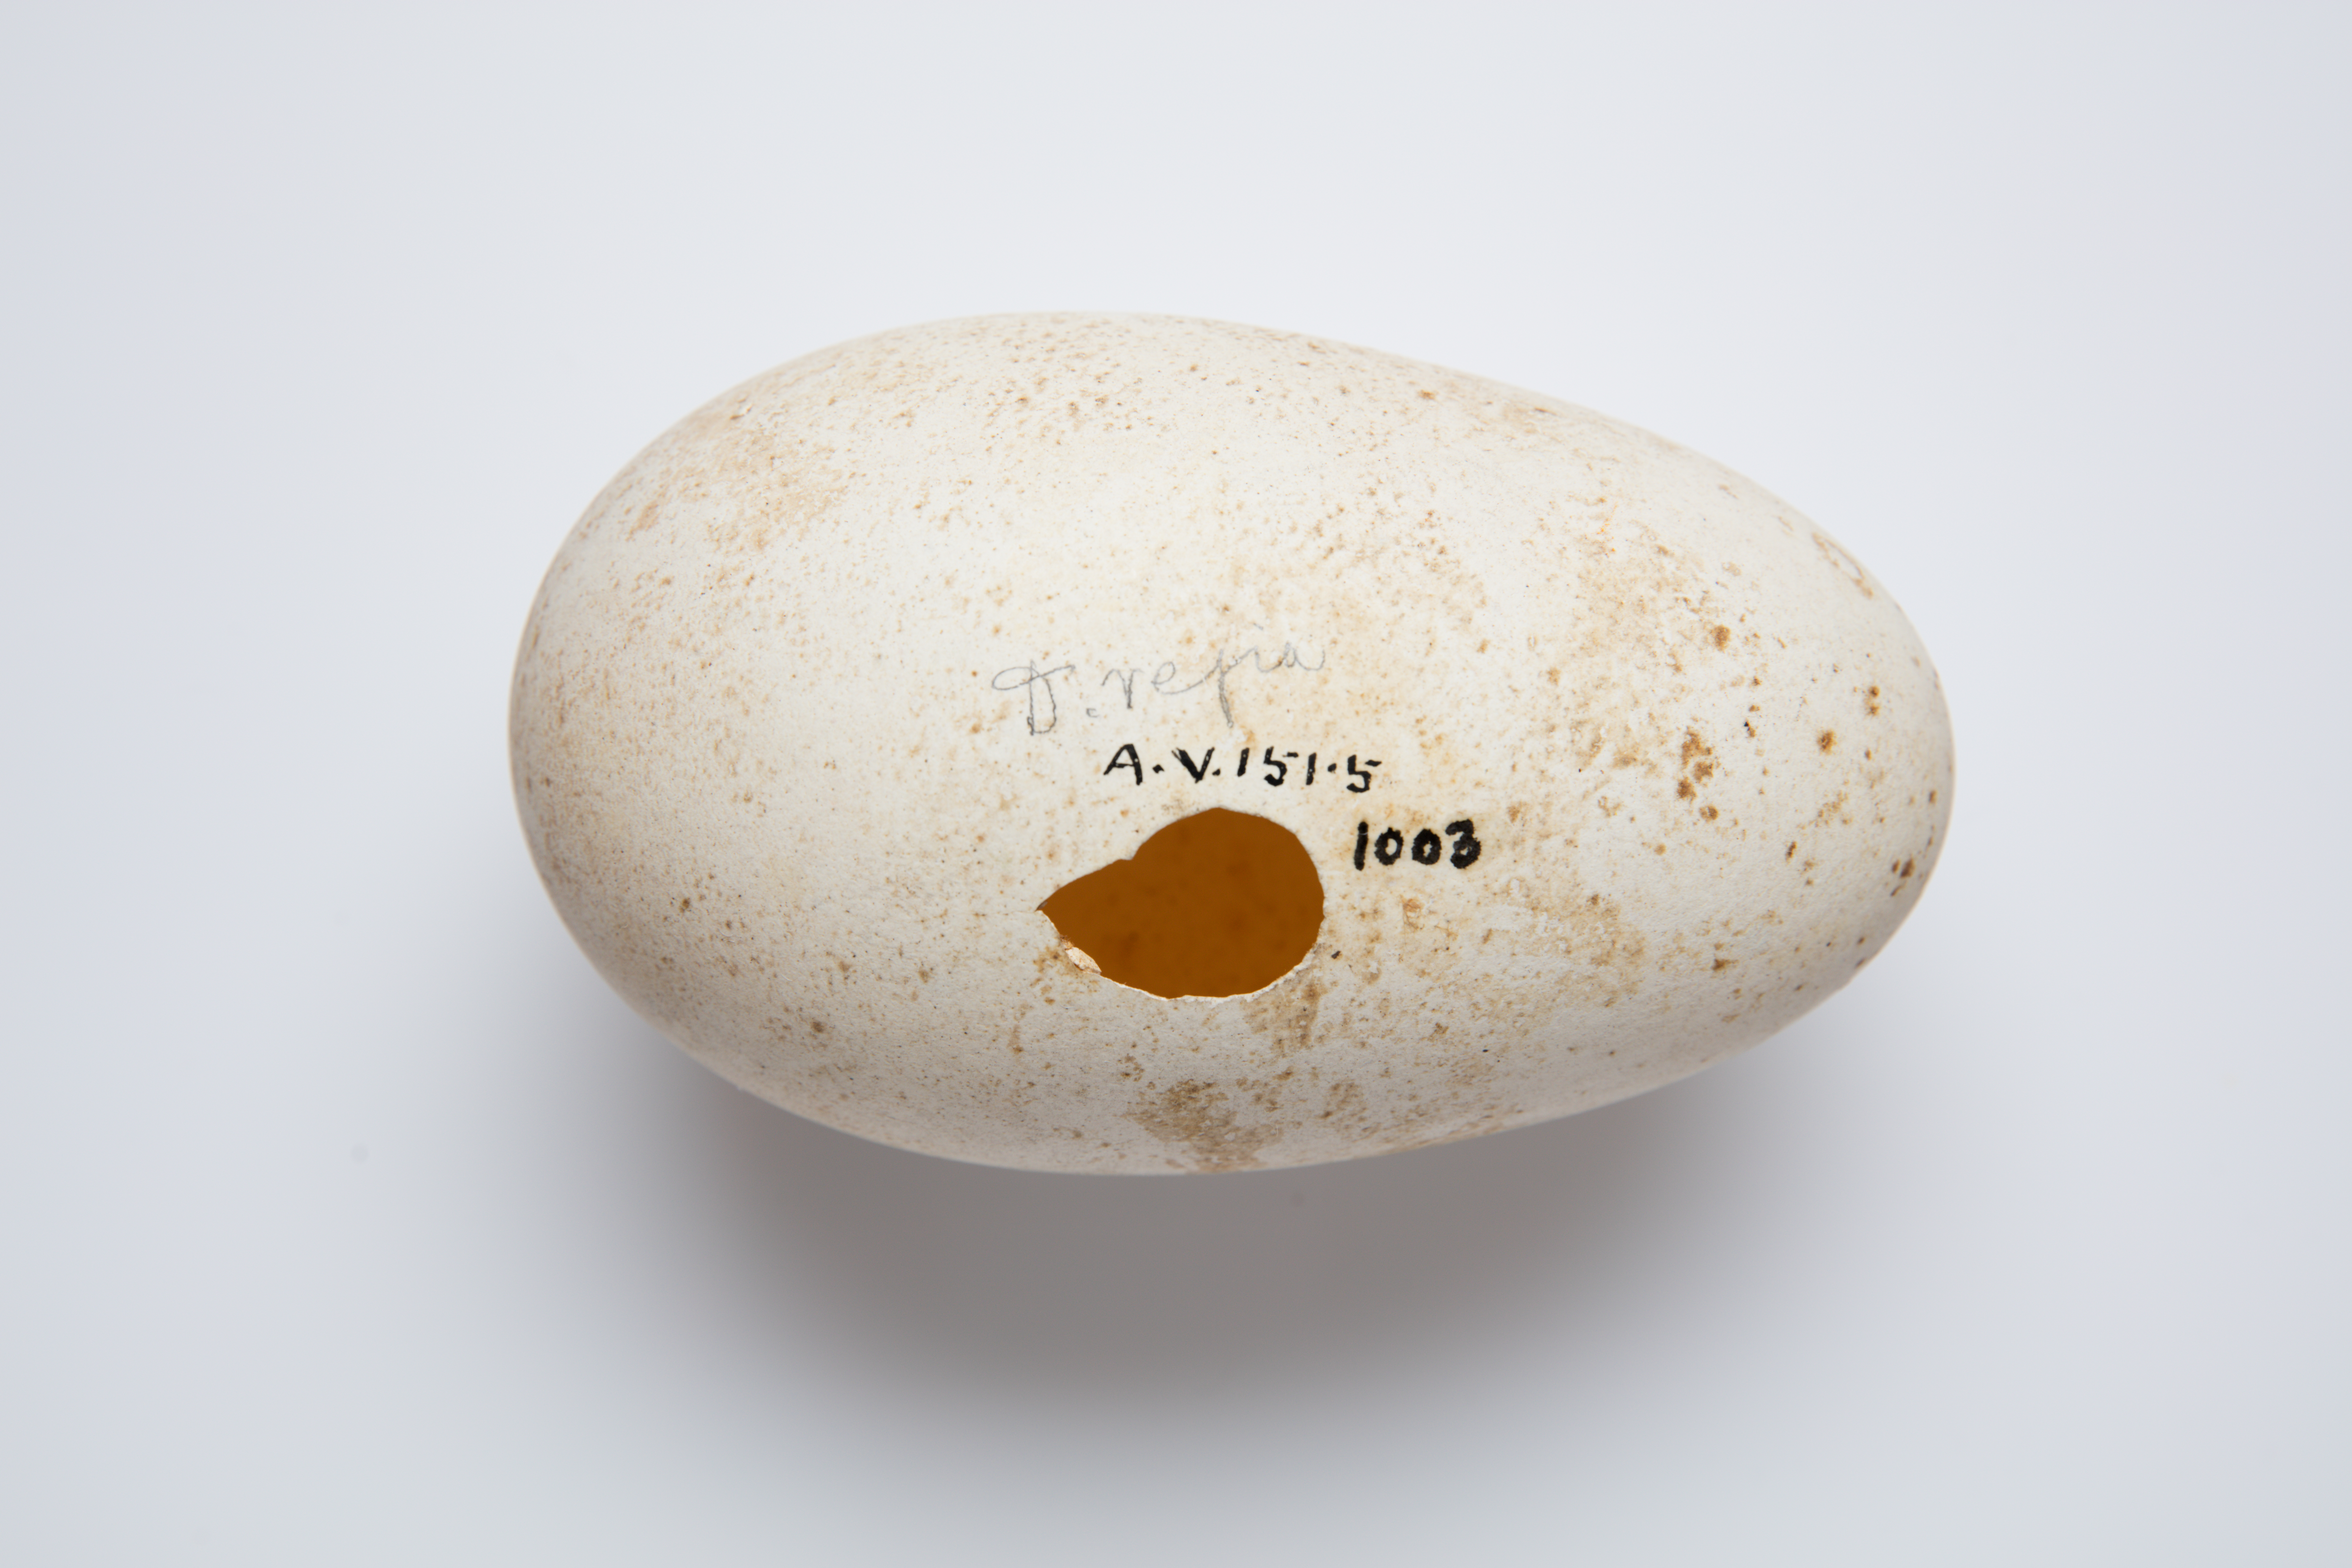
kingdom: Animalia
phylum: Chordata
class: Aves
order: Procellariiformes
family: Diomedeidae
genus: Diomedea
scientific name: Diomedea epomophora
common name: Southern royal albatross
